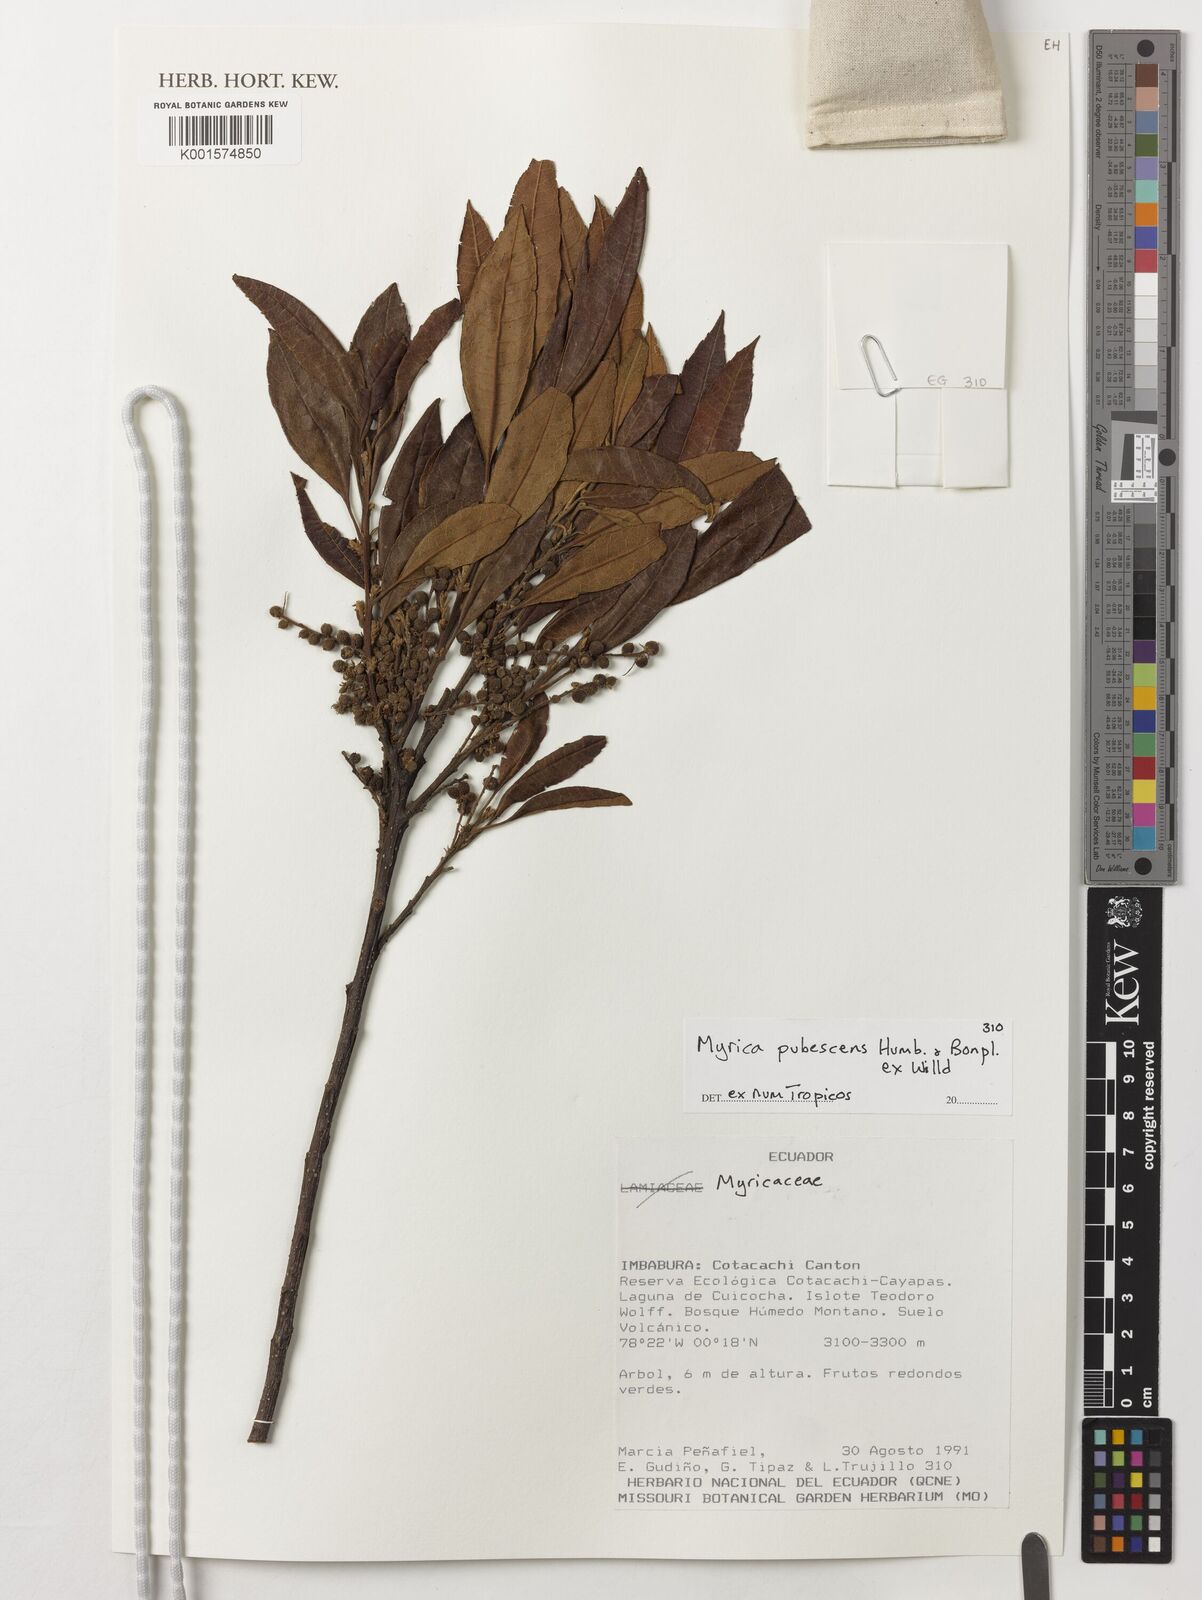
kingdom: Plantae
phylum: Tracheophyta
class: Magnoliopsida
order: Fagales
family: Myricaceae
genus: Morella
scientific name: Morella pubescens
